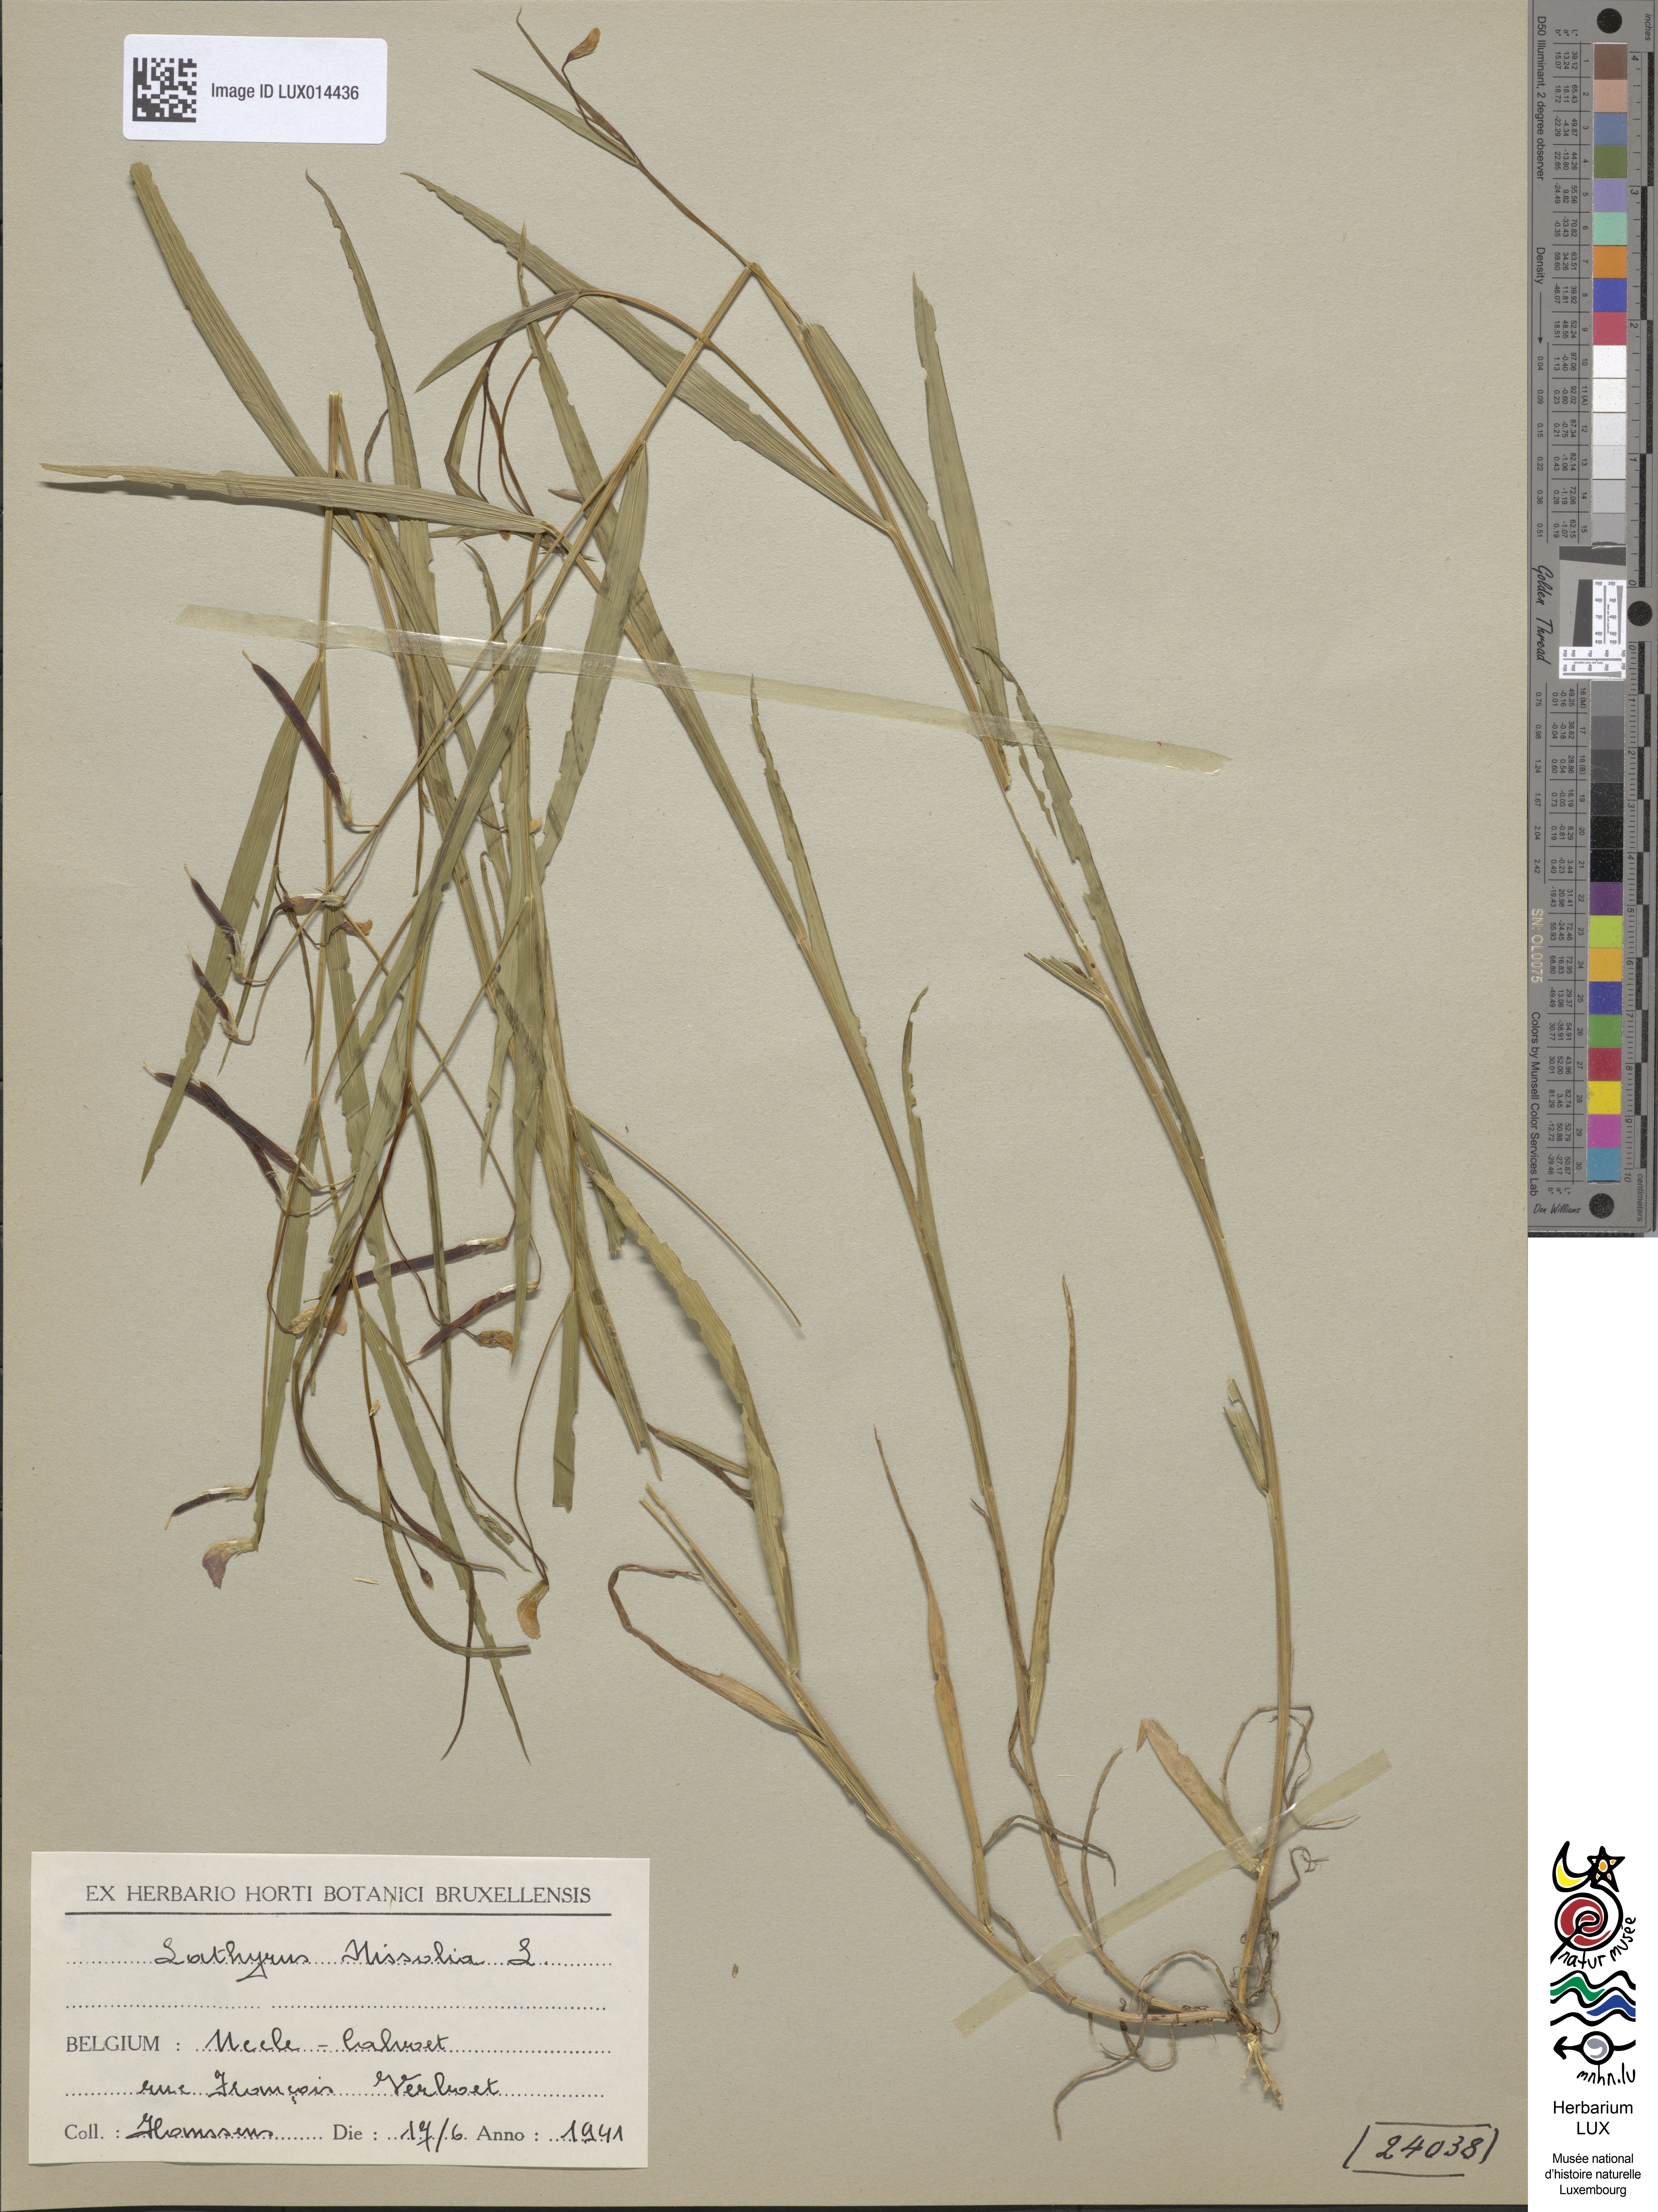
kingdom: Plantae
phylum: Tracheophyta
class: Magnoliopsida
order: Fabales
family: Fabaceae
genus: Lathyrus
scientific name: Lathyrus nissolia
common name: Grass vetchling
